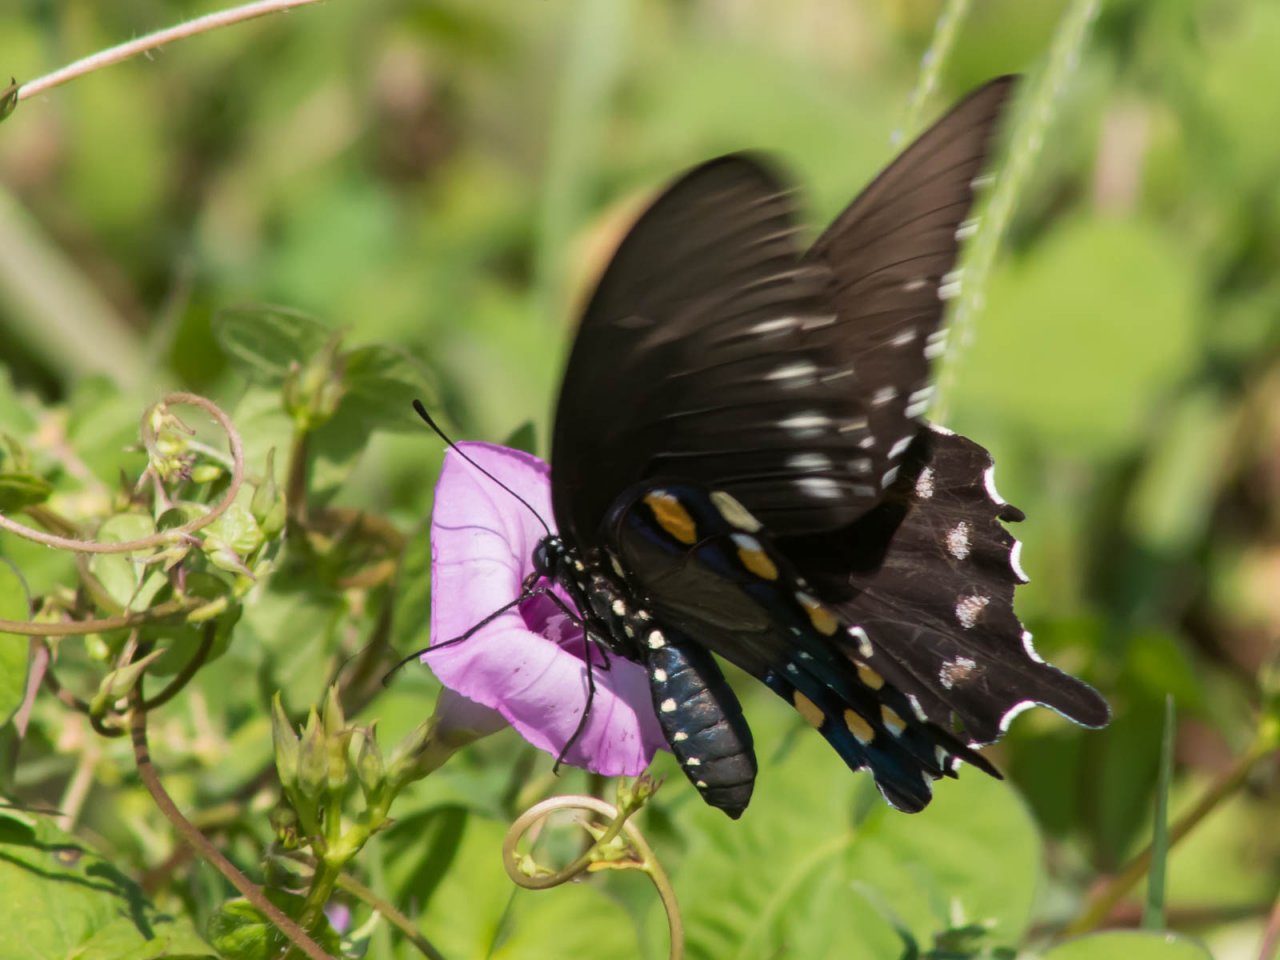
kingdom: Animalia
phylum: Arthropoda
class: Insecta
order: Lepidoptera
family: Papilionidae
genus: Battus
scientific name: Battus philenor
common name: Pipevine Swallowtail
